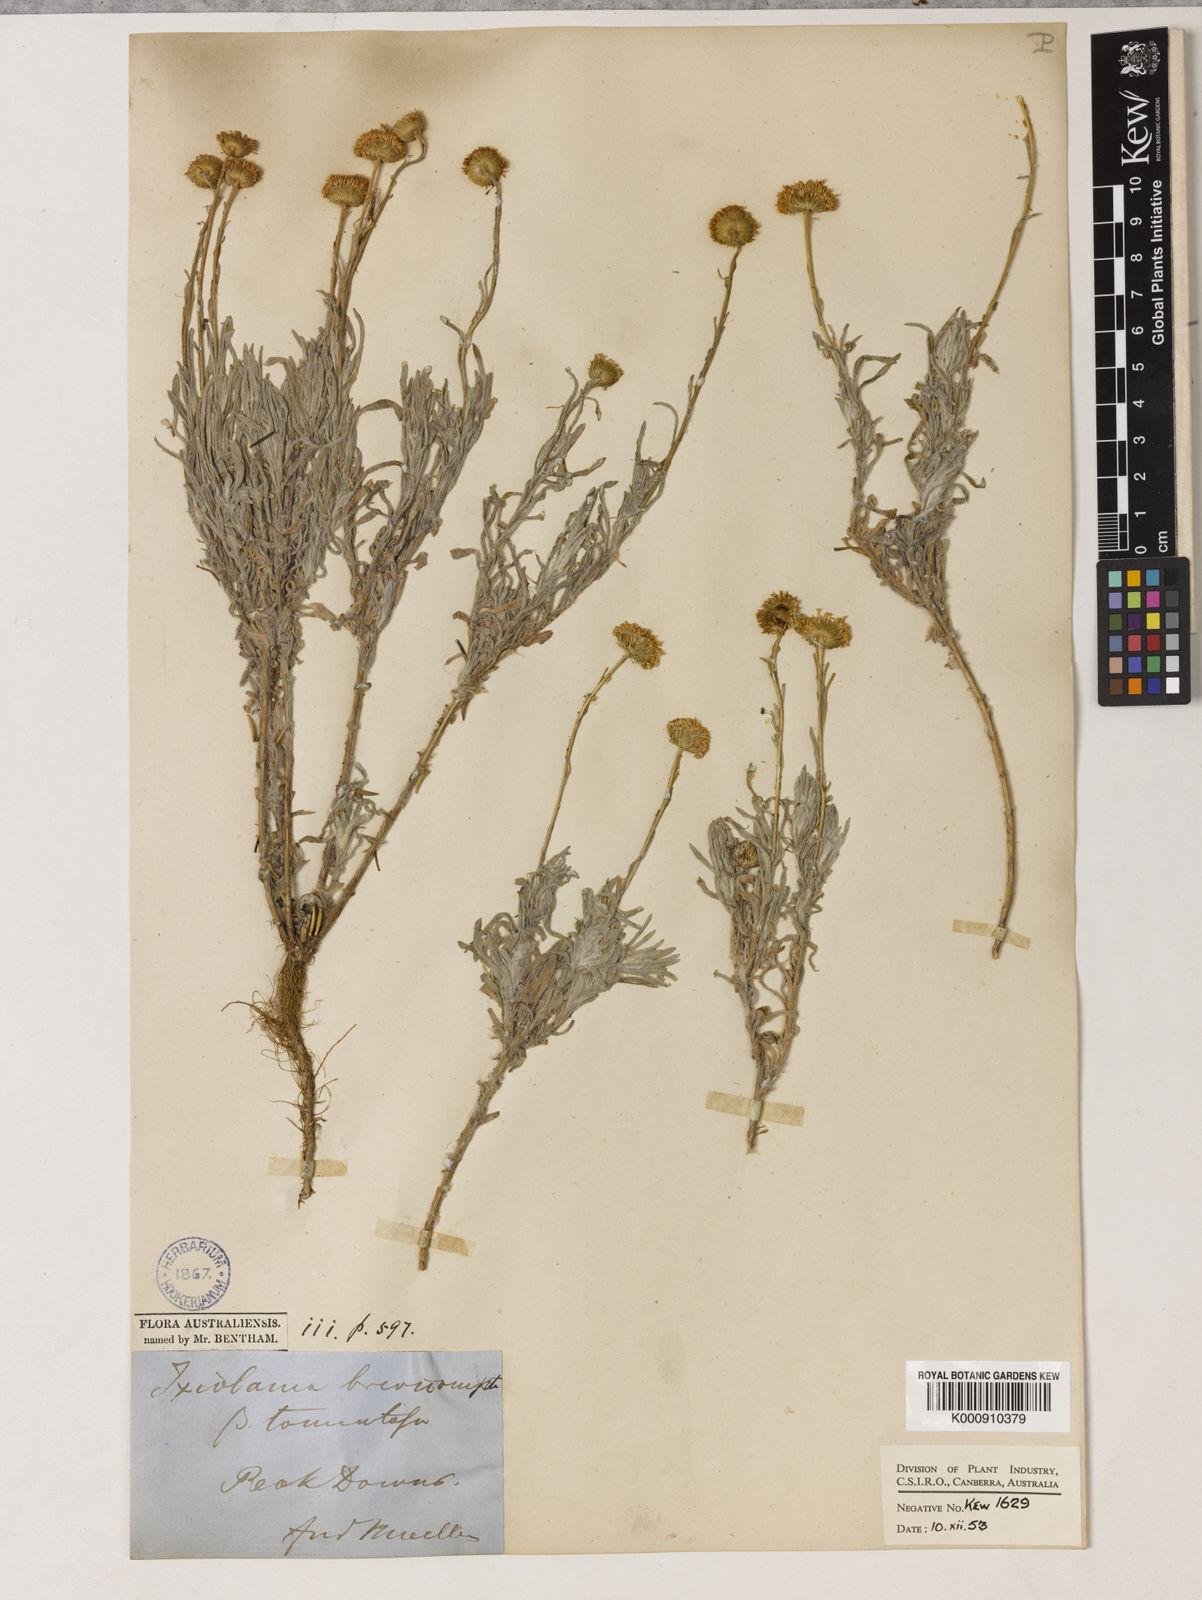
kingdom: Plantae
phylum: Tracheophyta
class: Magnoliopsida
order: Asterales
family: Asteraceae
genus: Leiocarpa
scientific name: Leiocarpa brevicompta
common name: Plain plover daisy
